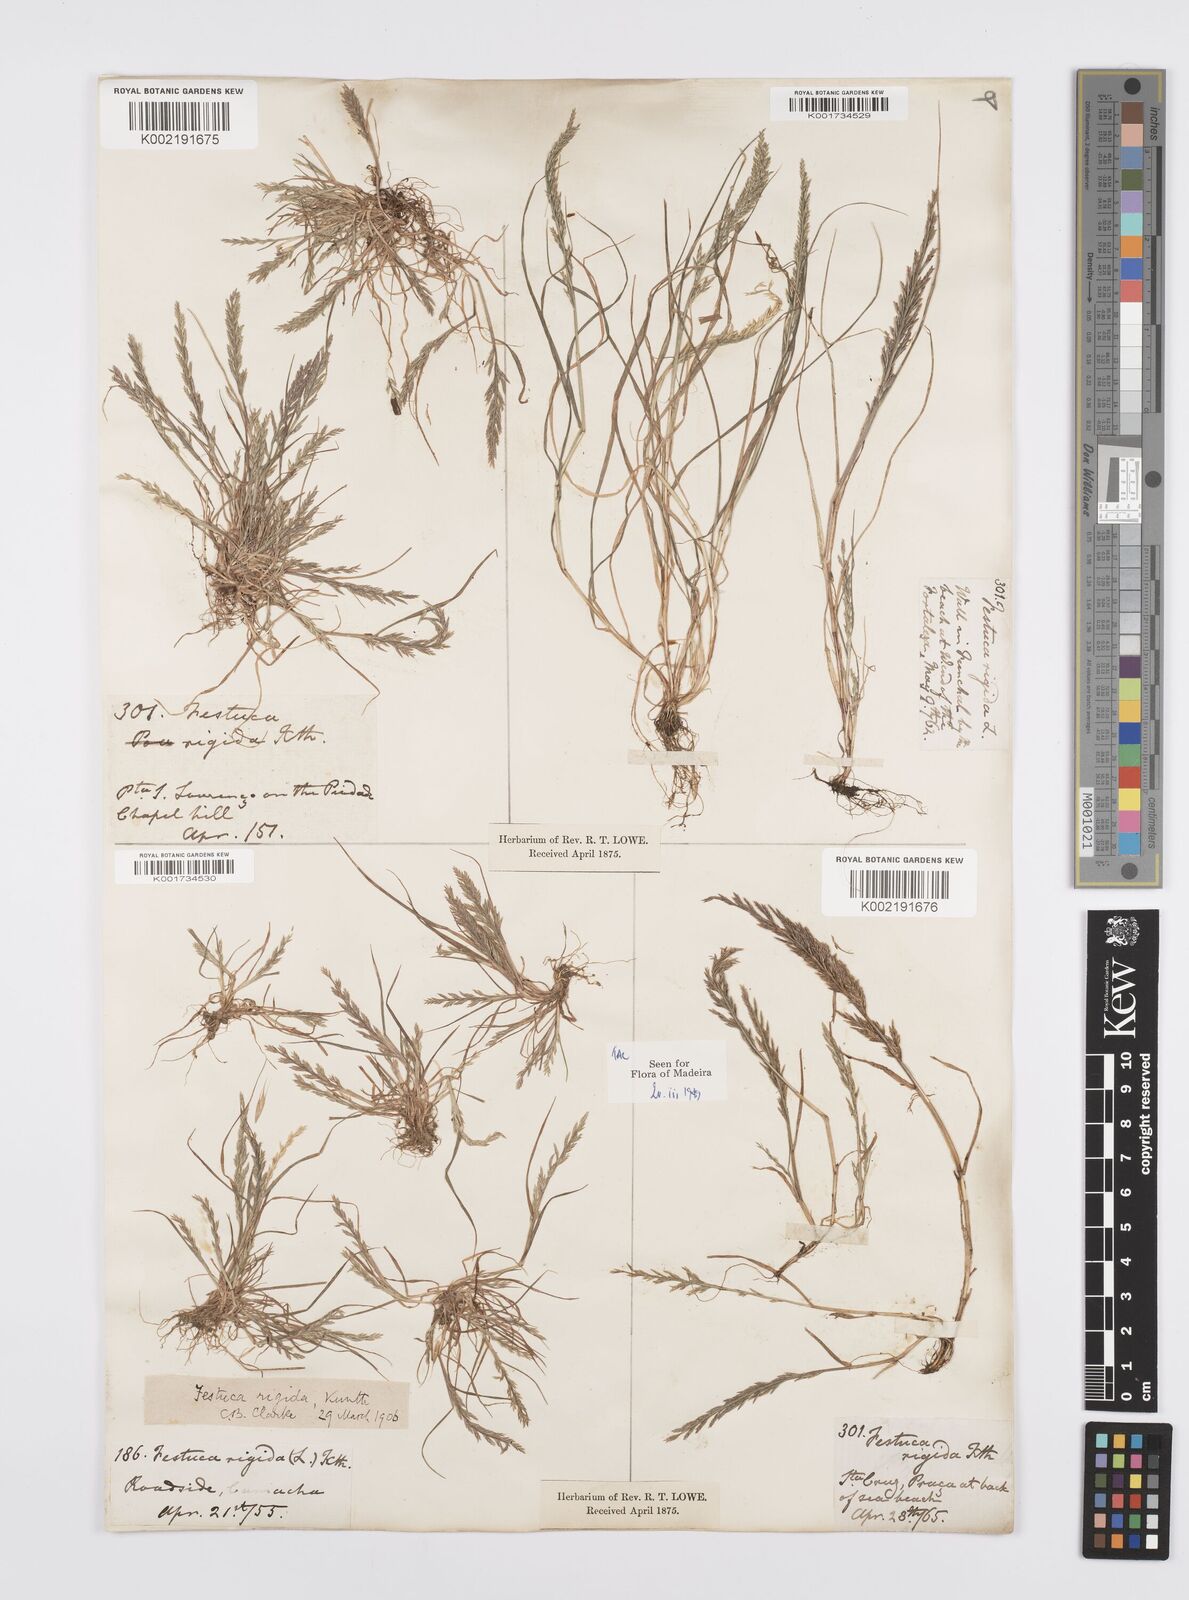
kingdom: Plantae
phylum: Tracheophyta
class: Liliopsida
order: Poales
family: Poaceae
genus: Catapodium
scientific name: Catapodium rigidum
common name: Fern-grass
